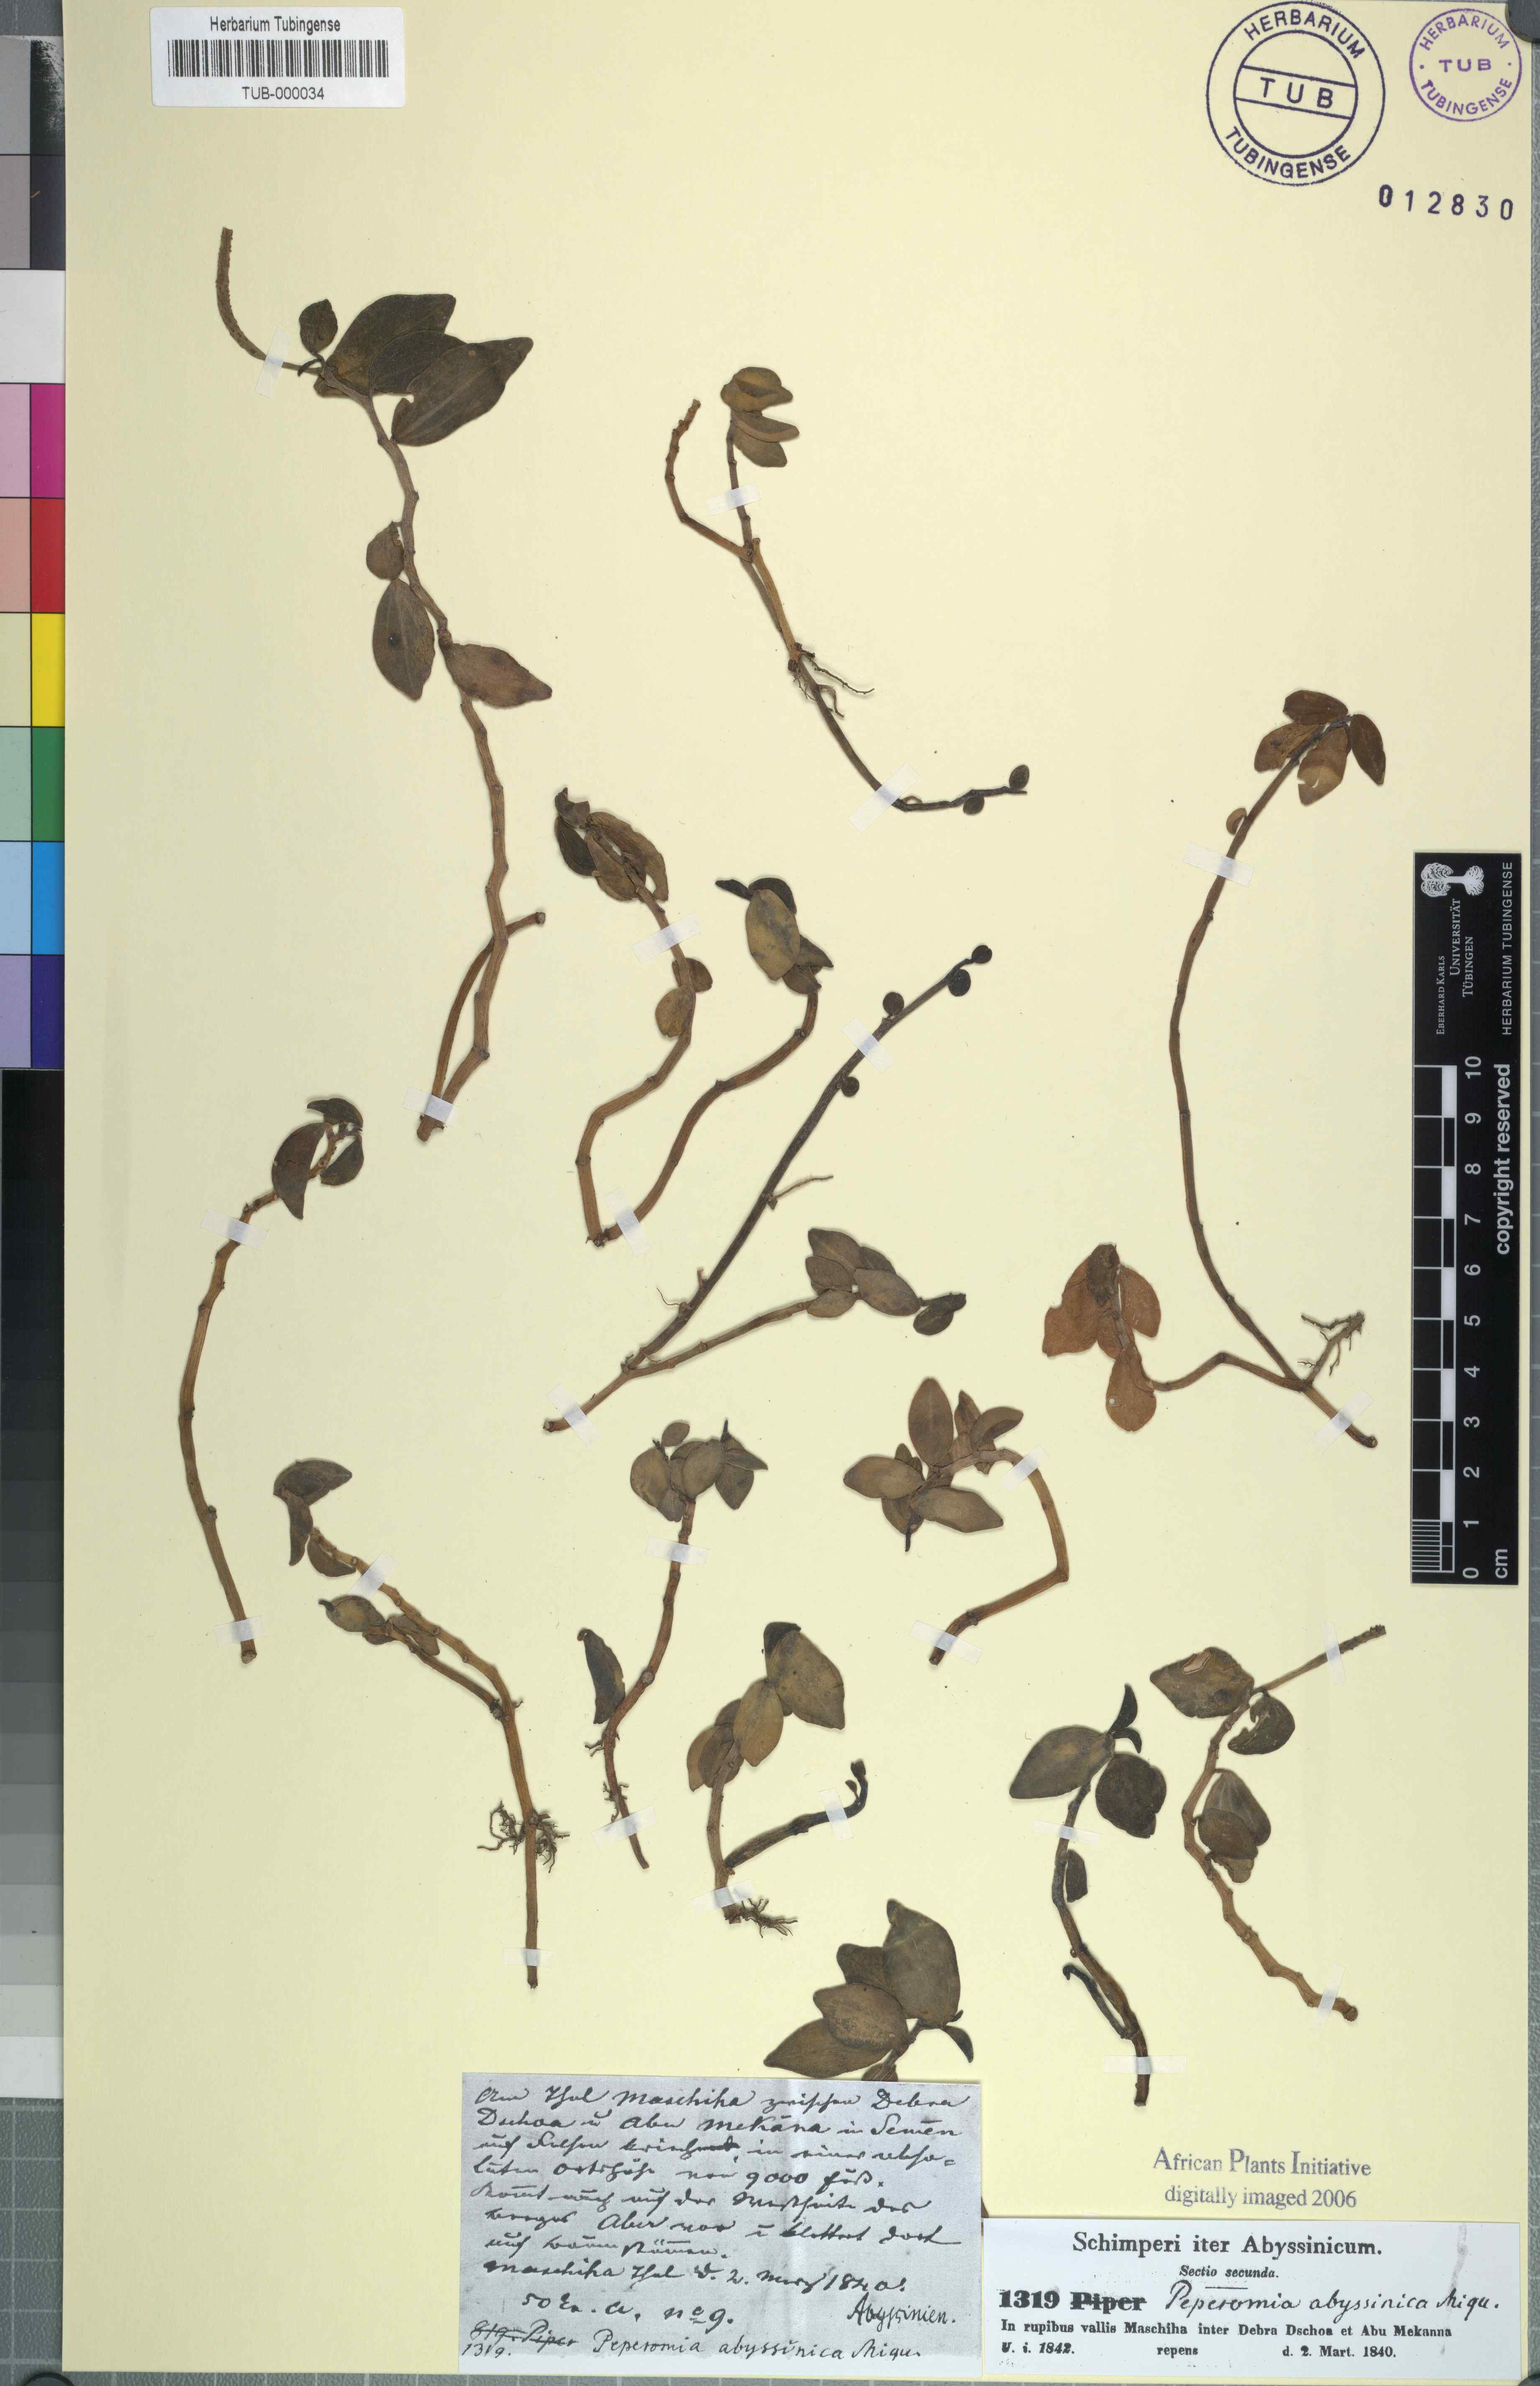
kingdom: Plantae
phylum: Tracheophyta
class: Magnoliopsida
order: Piperales
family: Piperaceae
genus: Peperomia
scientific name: Peperomia abyssinica
